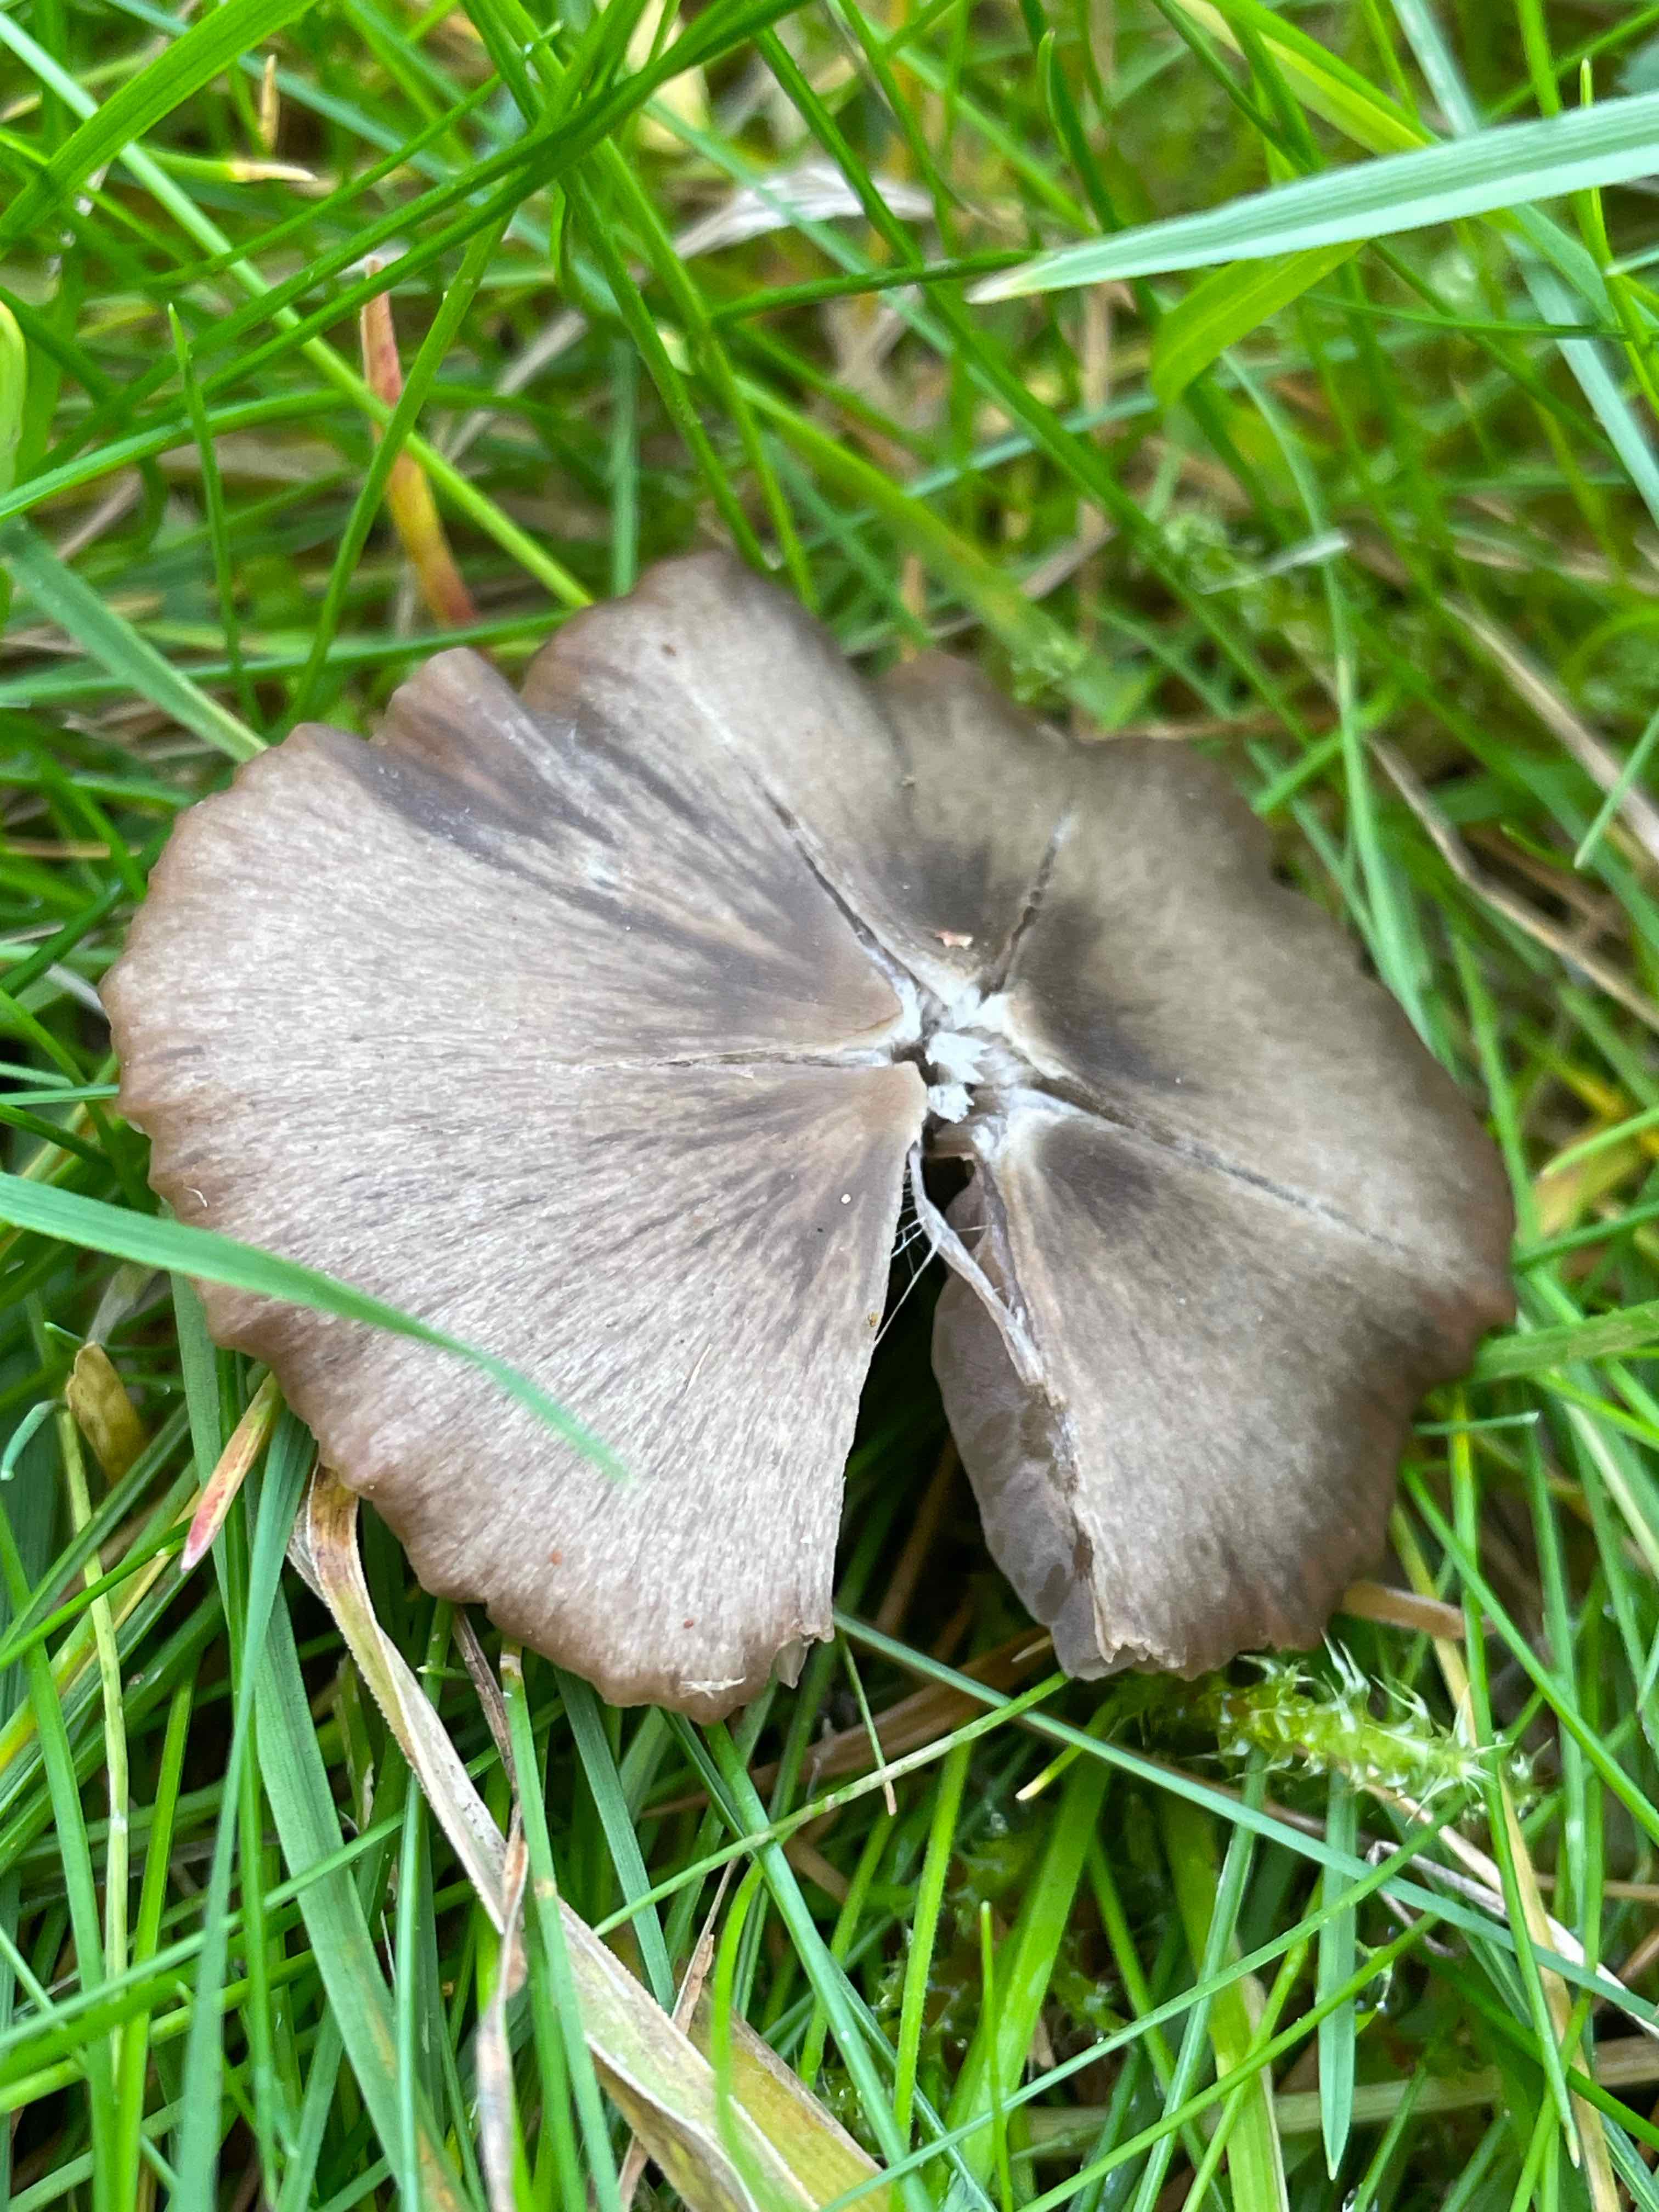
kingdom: Fungi
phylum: Basidiomycota
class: Agaricomycetes
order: Agaricales
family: Entolomataceae
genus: Entoloma
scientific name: Entoloma
